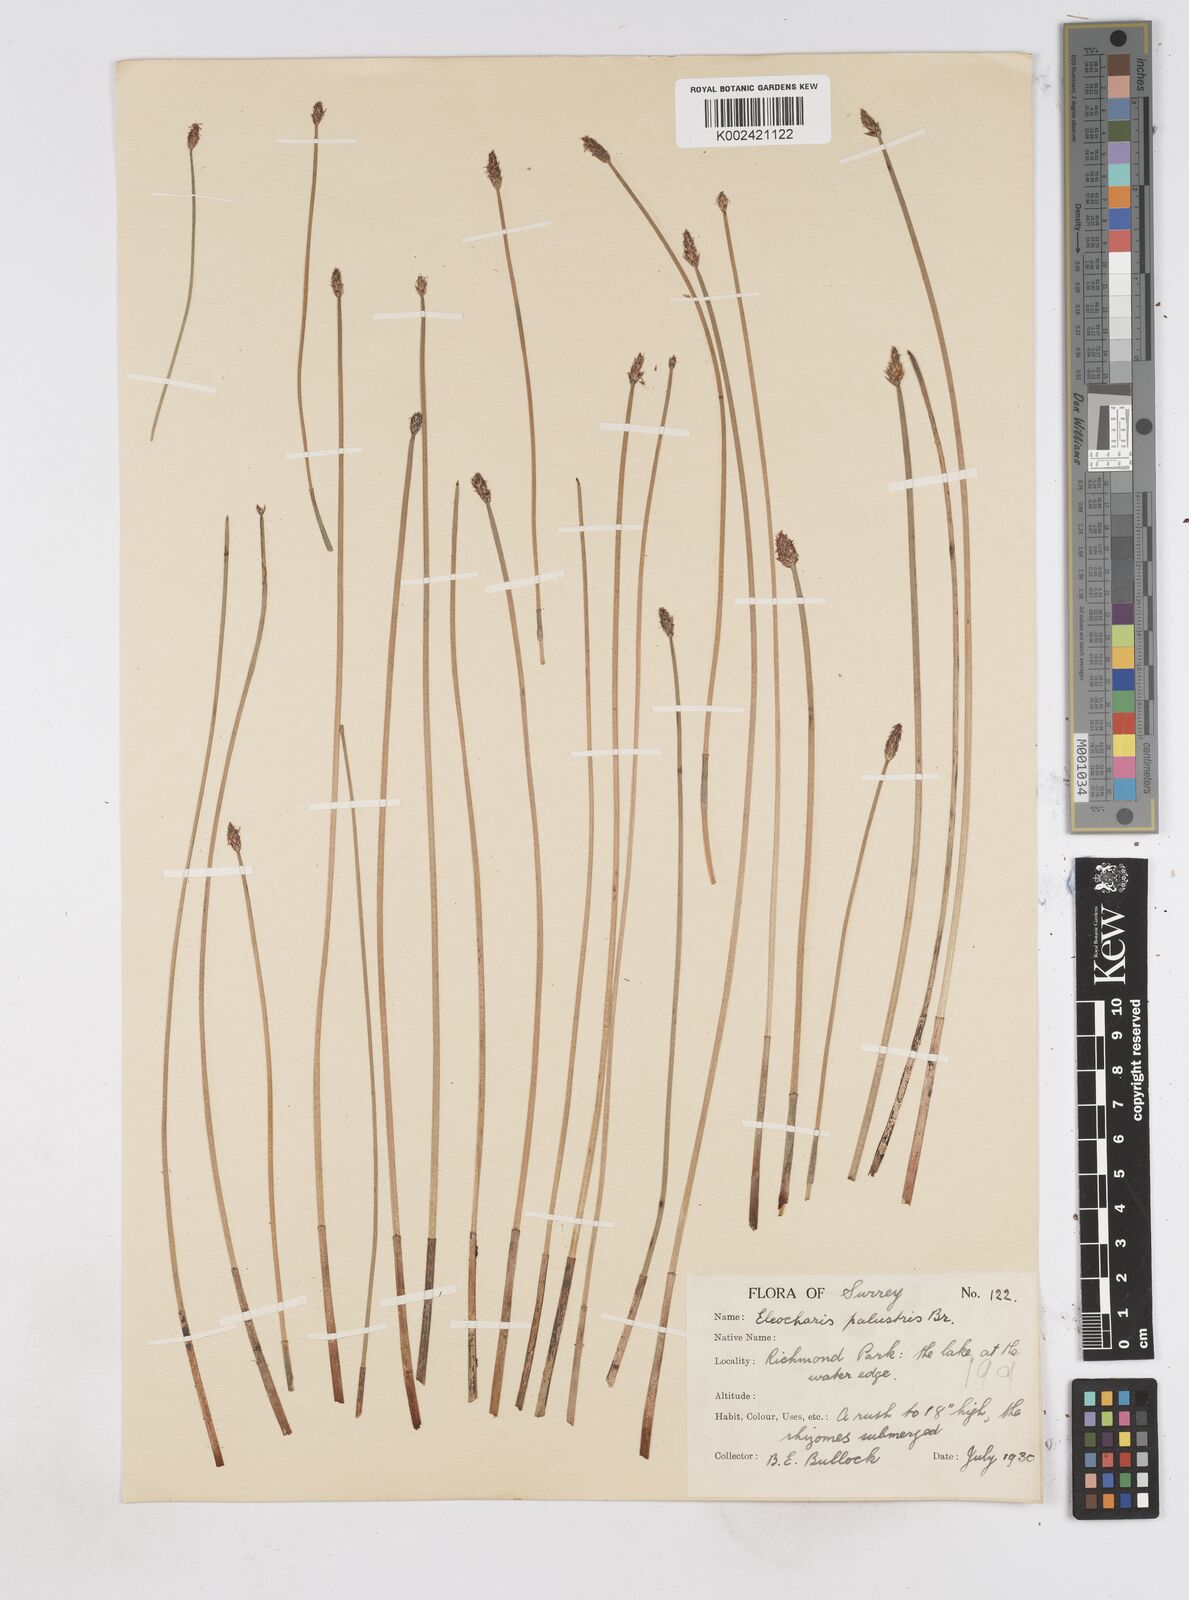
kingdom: Plantae
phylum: Tracheophyta
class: Liliopsida
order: Poales
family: Cyperaceae
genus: Eleocharis
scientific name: Eleocharis palustris
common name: Common spike-rush
